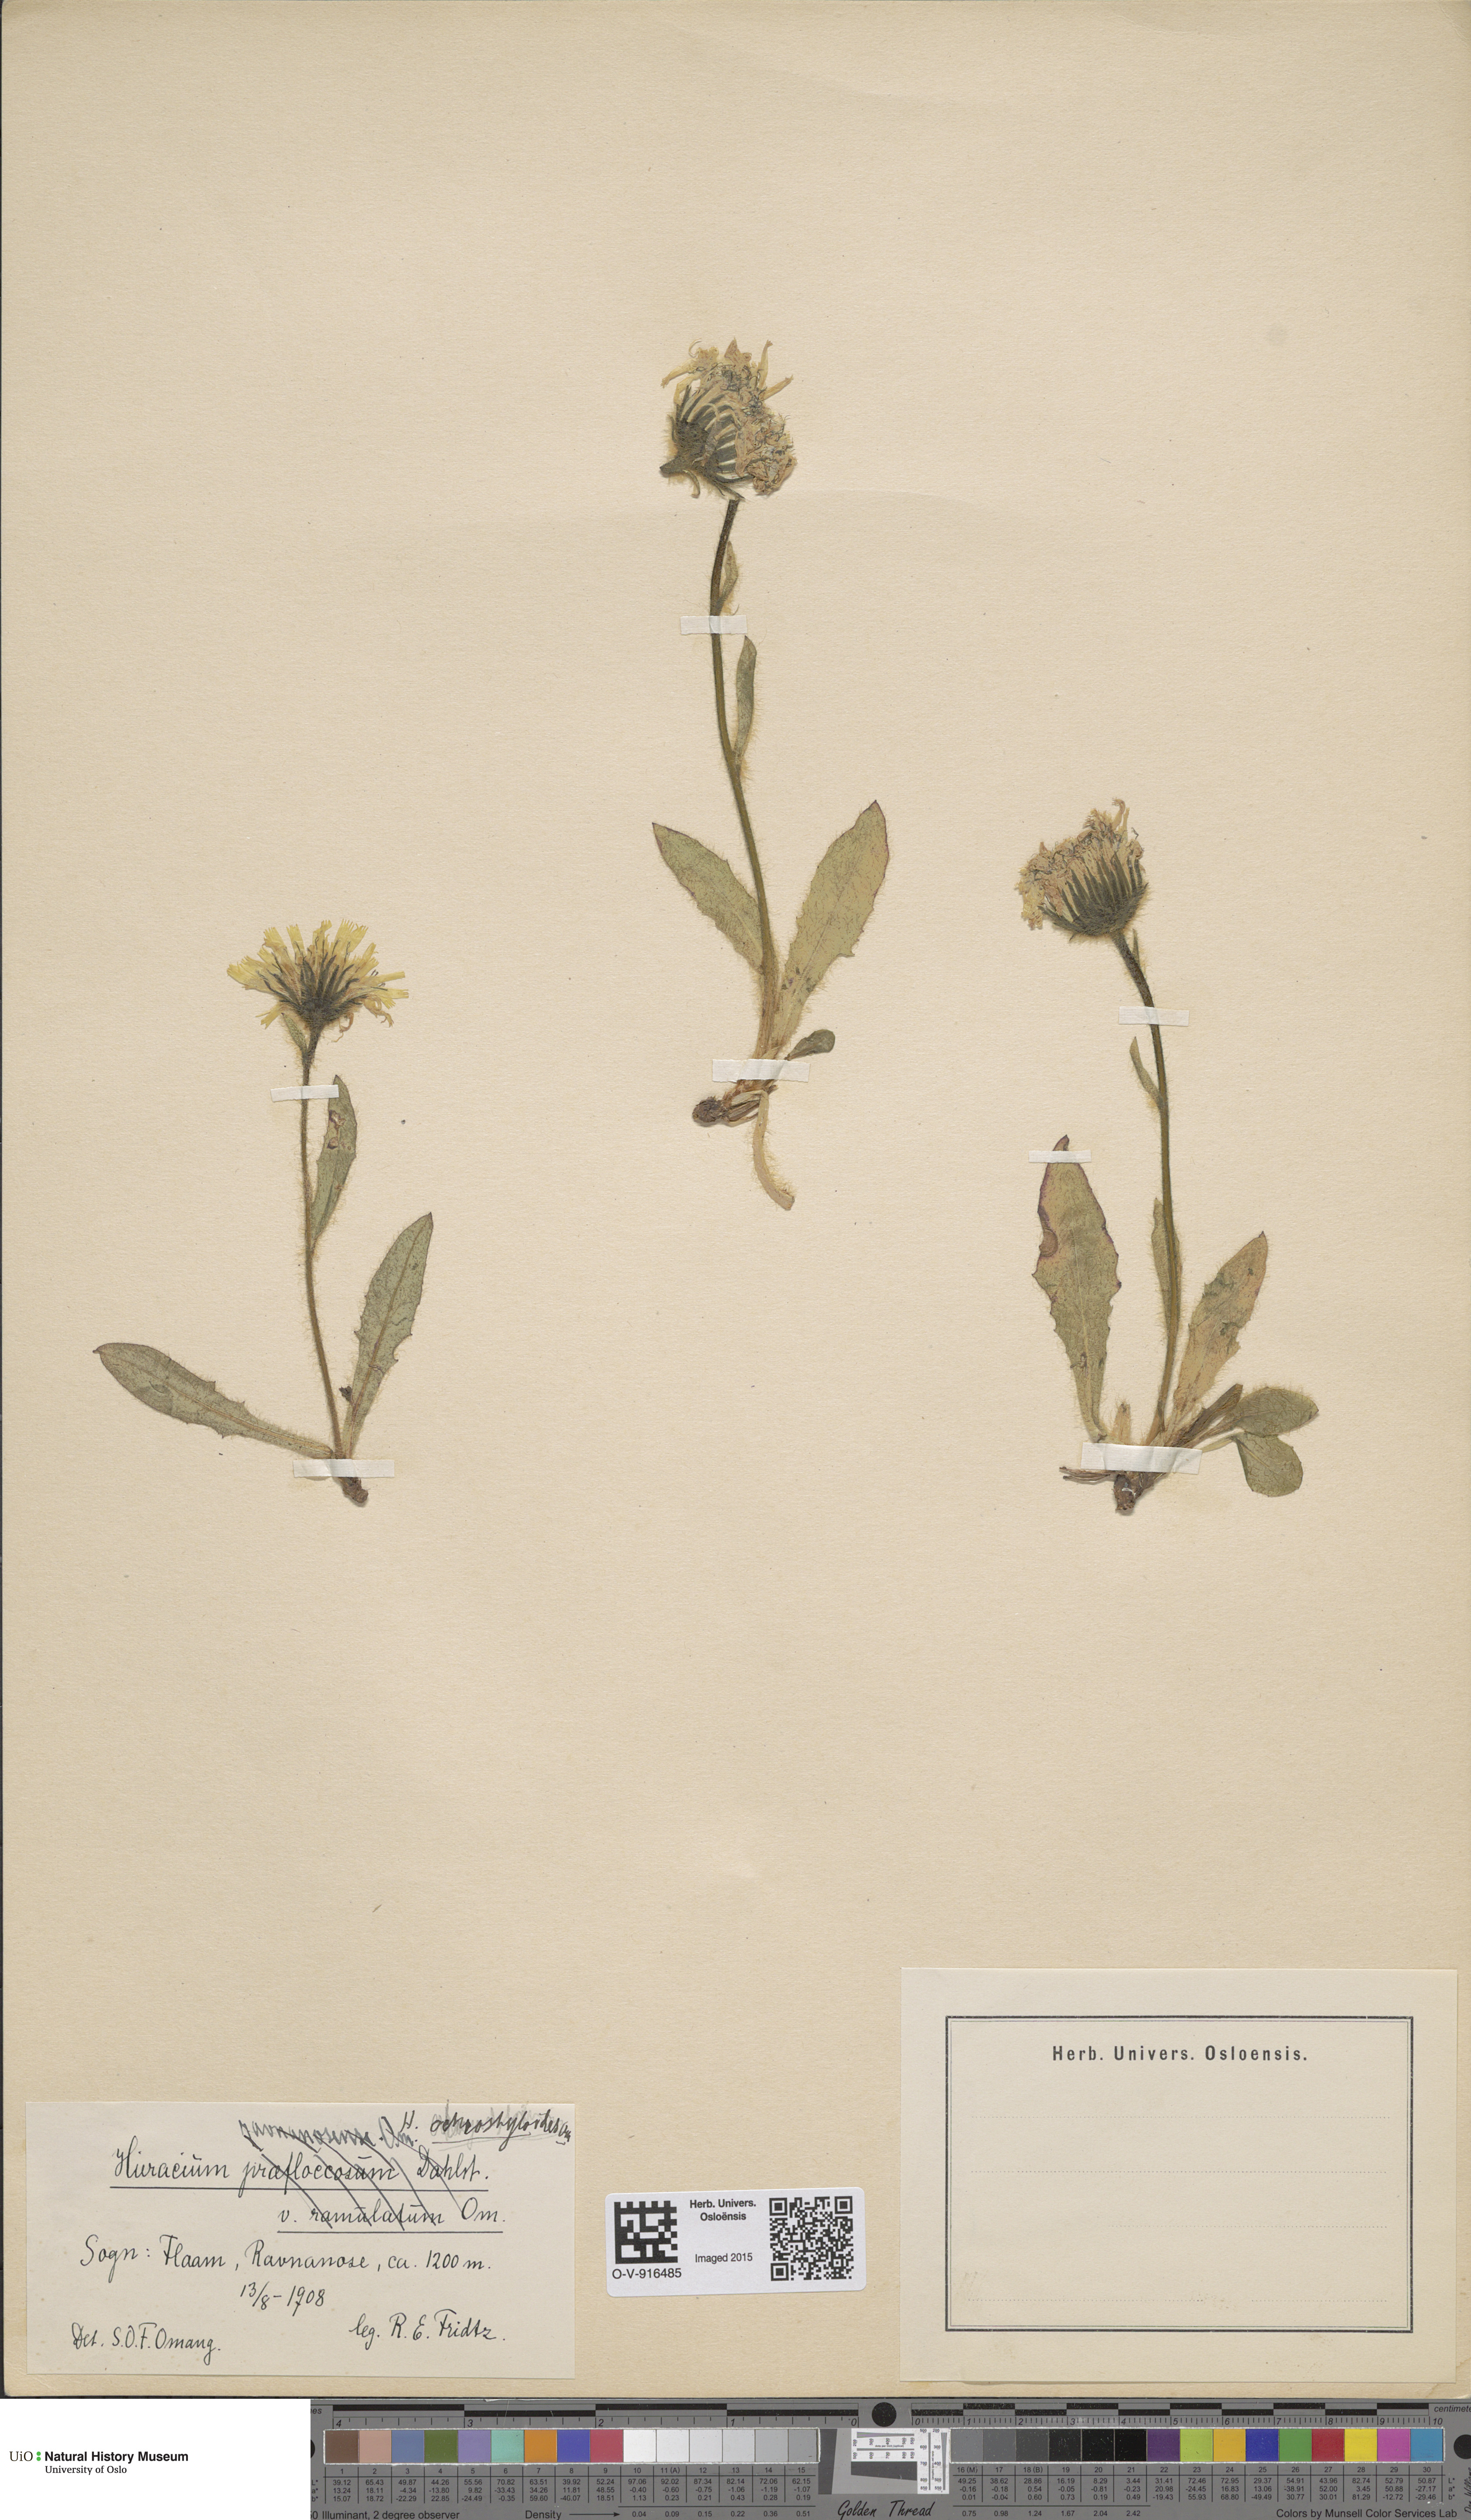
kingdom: Plantae
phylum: Tracheophyta
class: Magnoliopsida
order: Asterales
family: Asteraceae
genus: Hieracium
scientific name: Hieracium
